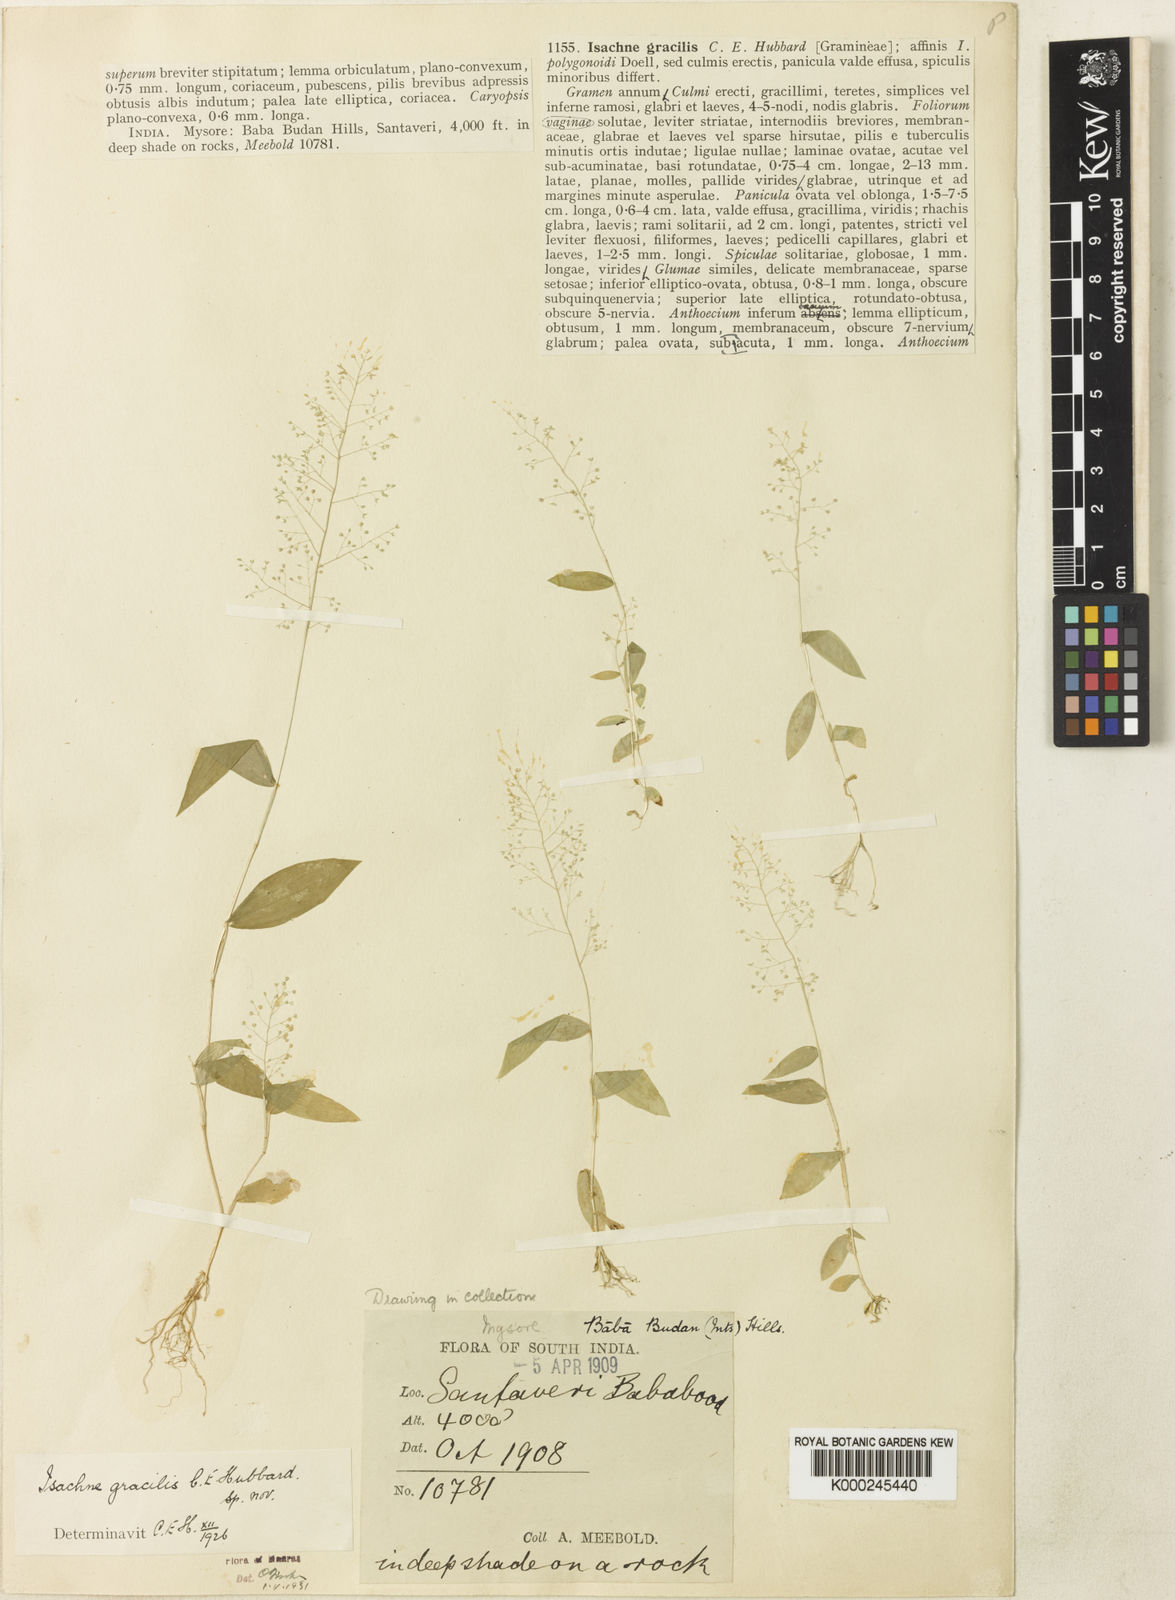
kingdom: Plantae
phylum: Tracheophyta
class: Liliopsida
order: Poales
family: Poaceae
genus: Isachne
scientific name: Isachne gracilis
